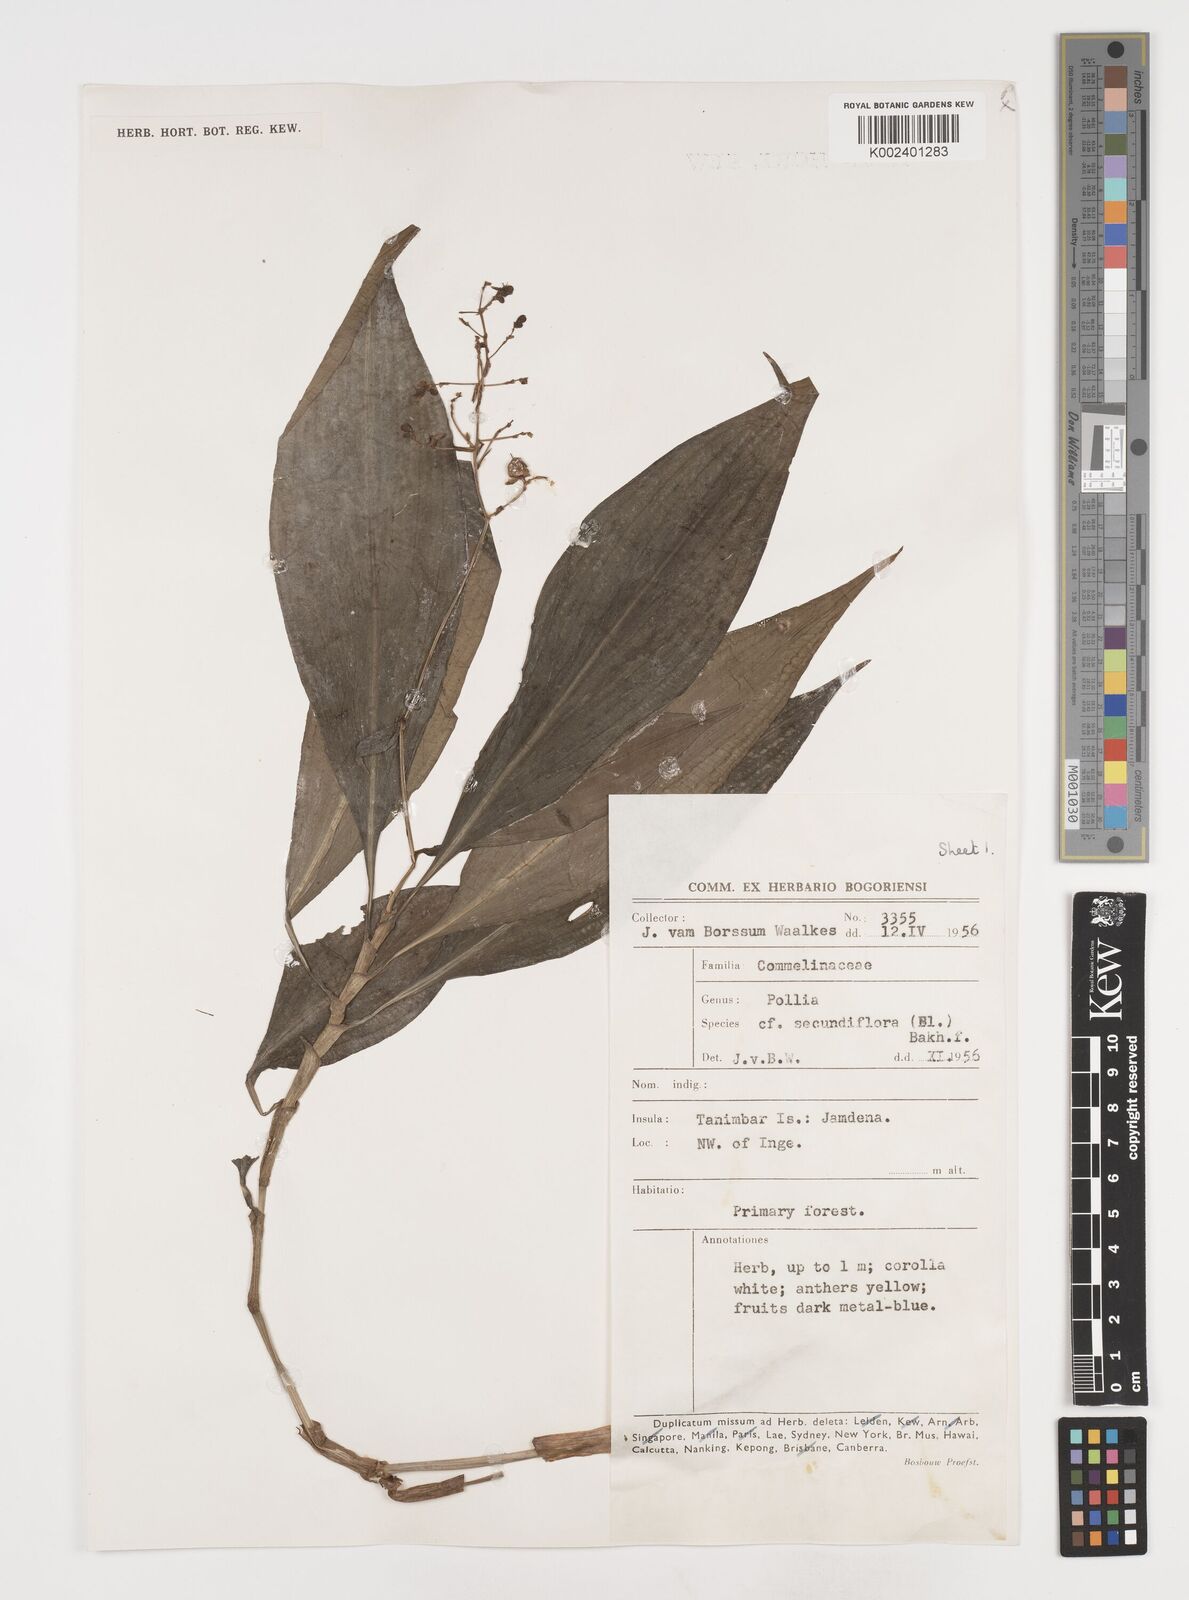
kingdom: Plantae
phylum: Tracheophyta
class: Liliopsida
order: Commelinales
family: Commelinaceae
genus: Pollia
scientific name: Pollia secundiflora
